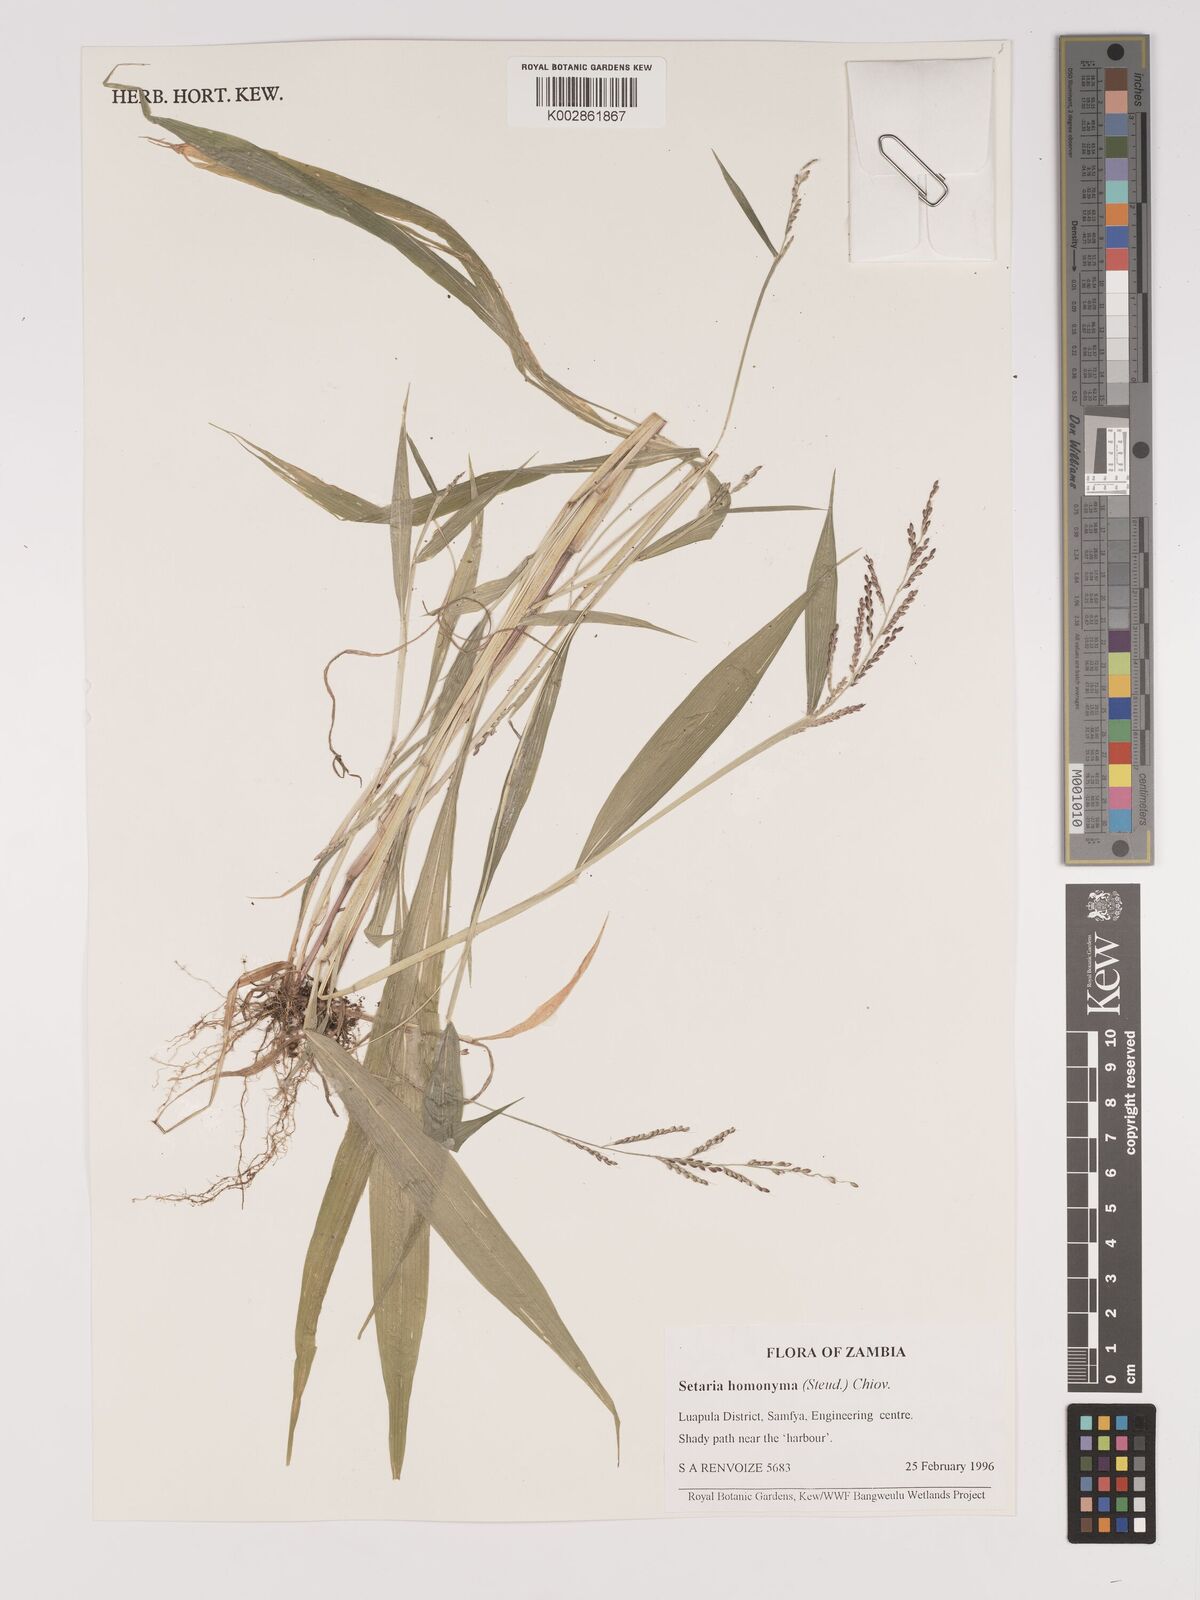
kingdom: Plantae
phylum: Tracheophyta
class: Liliopsida
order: Poales
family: Poaceae
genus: Setaria
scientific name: Setaria homonyma
